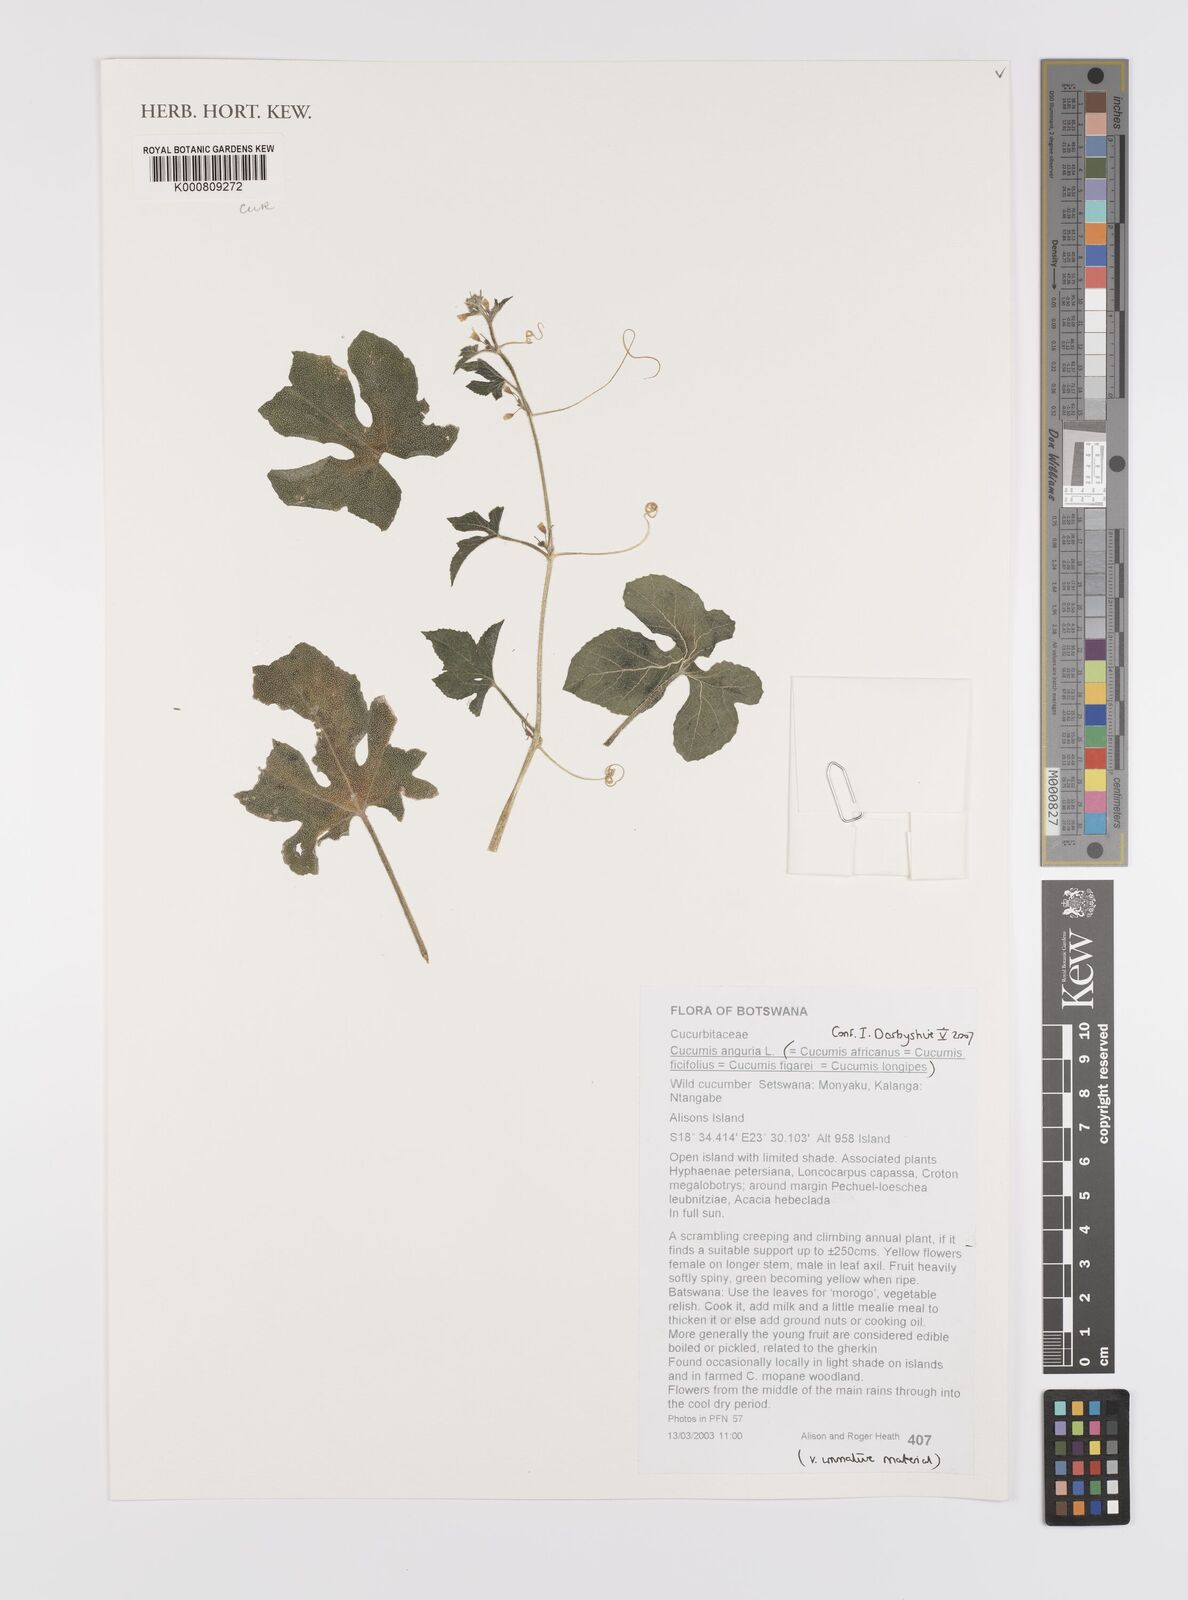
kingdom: Plantae
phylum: Tracheophyta
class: Magnoliopsida
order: Cucurbitales
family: Cucurbitaceae
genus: Cucumis
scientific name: Cucumis anguria
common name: West indian gherkin
